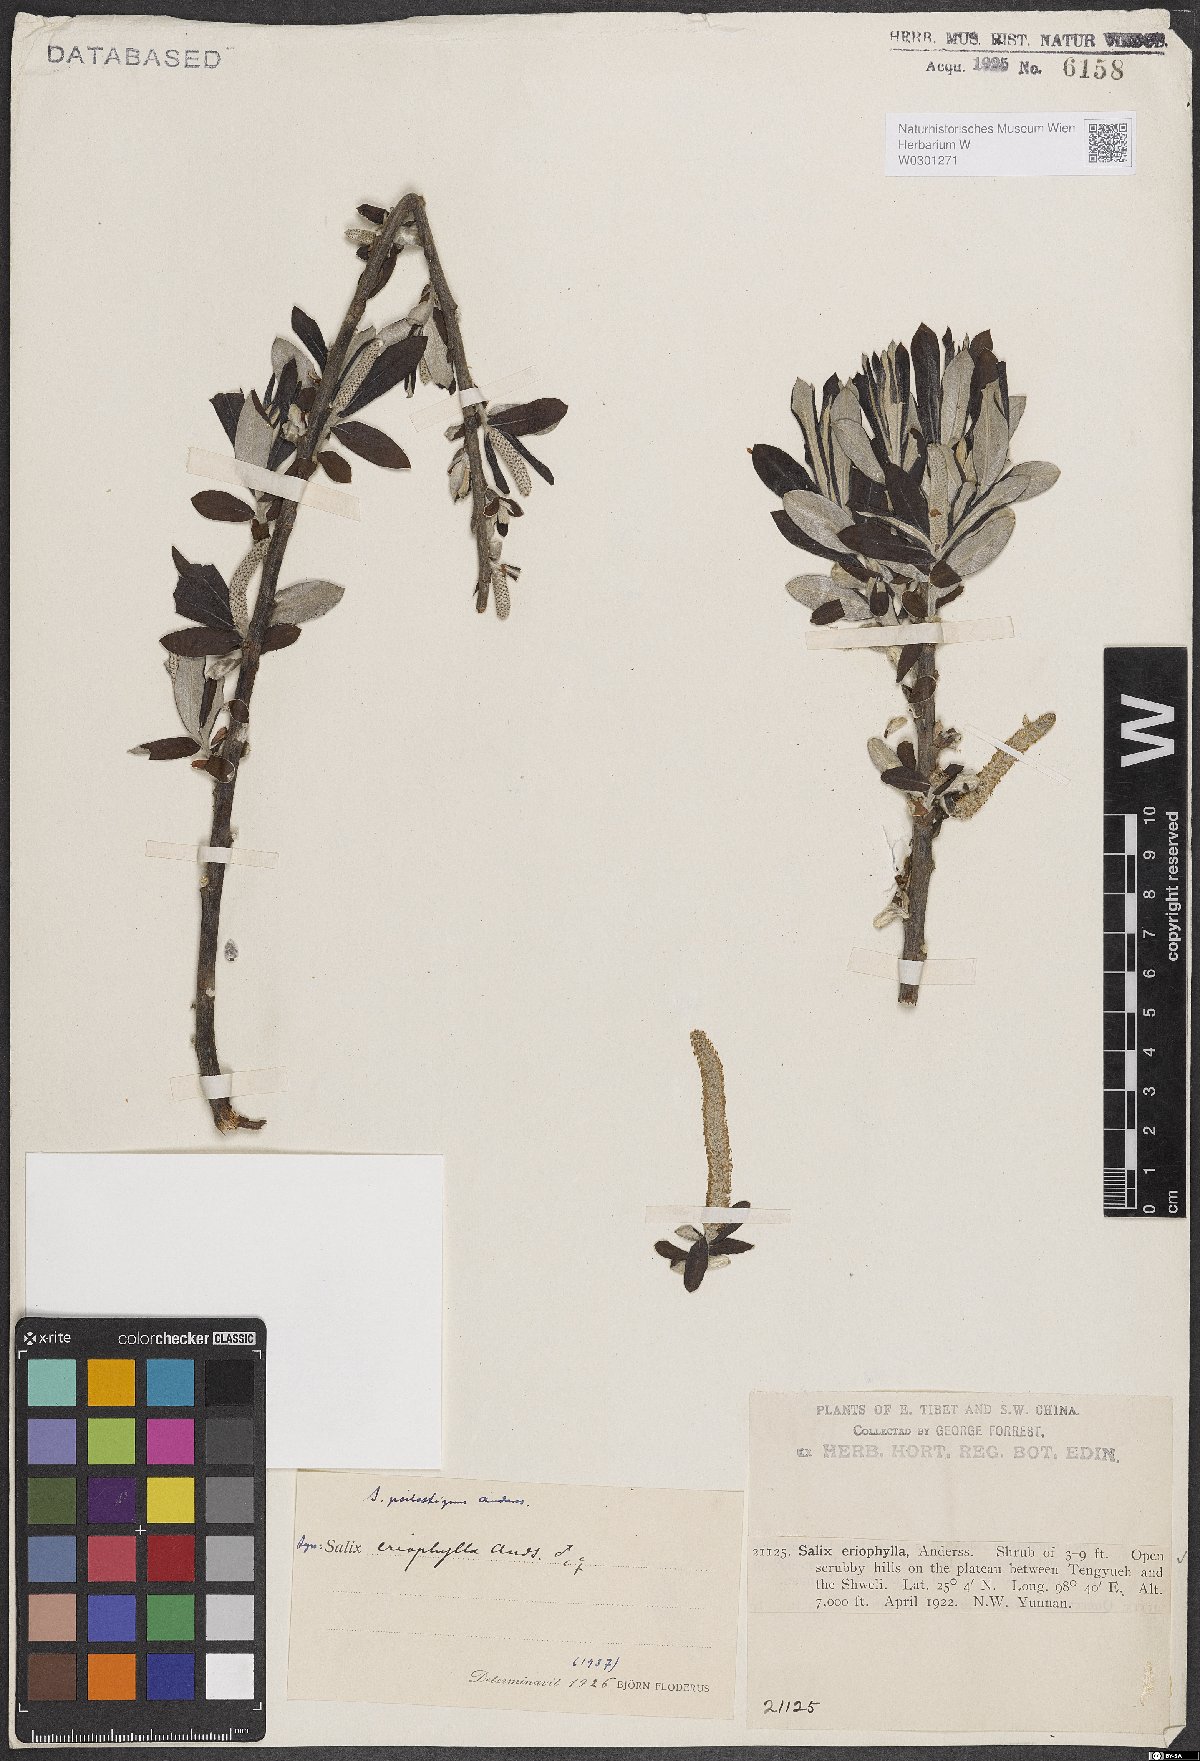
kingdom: Plantae
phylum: Tracheophyta
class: Magnoliopsida
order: Malpighiales
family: Salicaceae
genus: Salix
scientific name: Salix psilostigma
